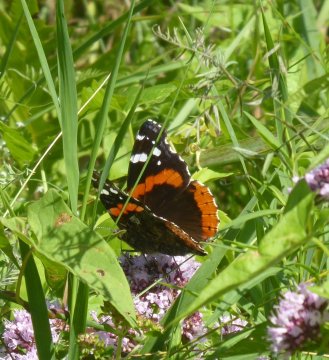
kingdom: Animalia
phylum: Arthropoda
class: Insecta
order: Lepidoptera
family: Nymphalidae
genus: Vanessa
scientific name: Vanessa atalanta
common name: Red Admiral
